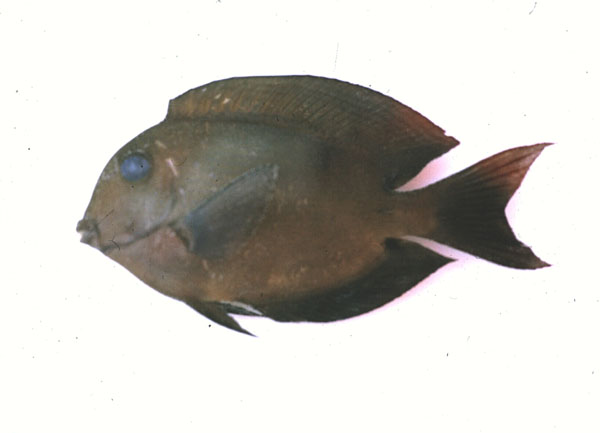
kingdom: Animalia
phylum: Chordata
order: Perciformes
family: Acanthuridae
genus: Acanthurus
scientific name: Acanthurus
